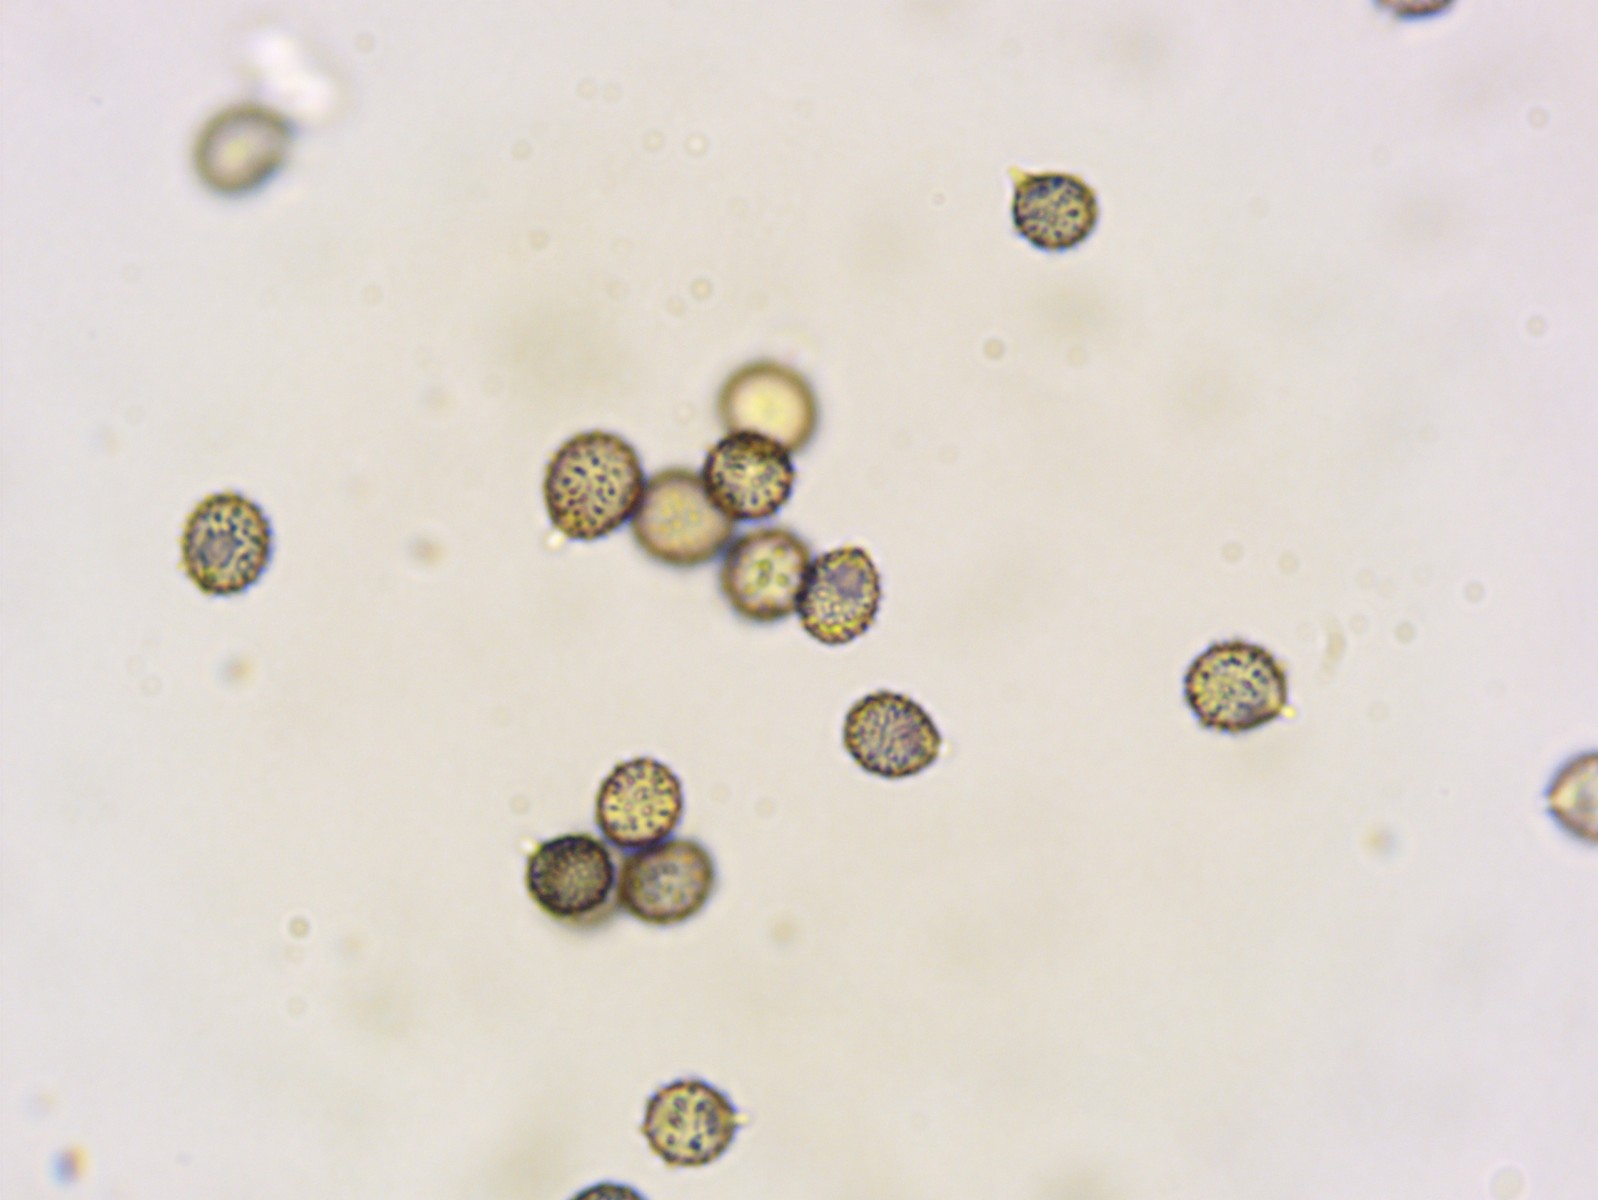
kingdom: Fungi
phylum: Basidiomycota
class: Agaricomycetes
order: Russulales
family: Russulaceae
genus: Russula
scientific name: Russula velenovskyi
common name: orangerød skørhat
